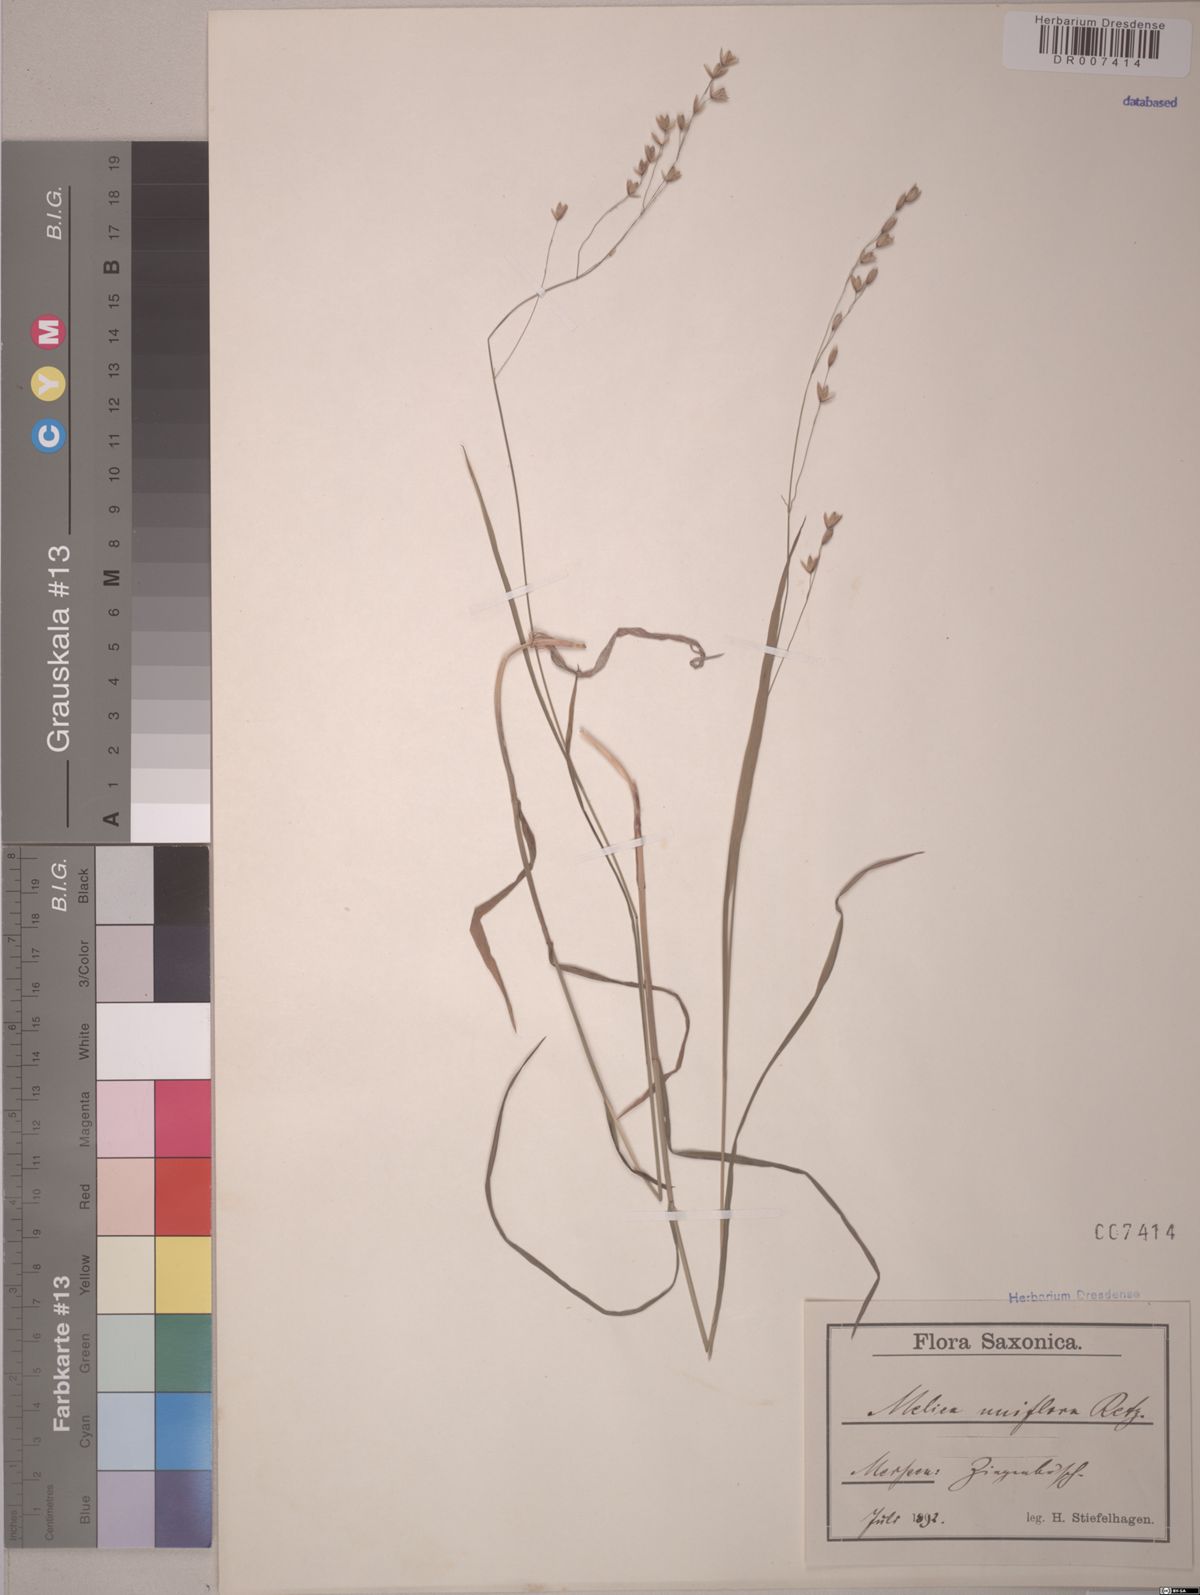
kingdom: Plantae
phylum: Tracheophyta
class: Liliopsida
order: Poales
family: Poaceae
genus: Melica
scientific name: Melica uniflora
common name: Wood melick
